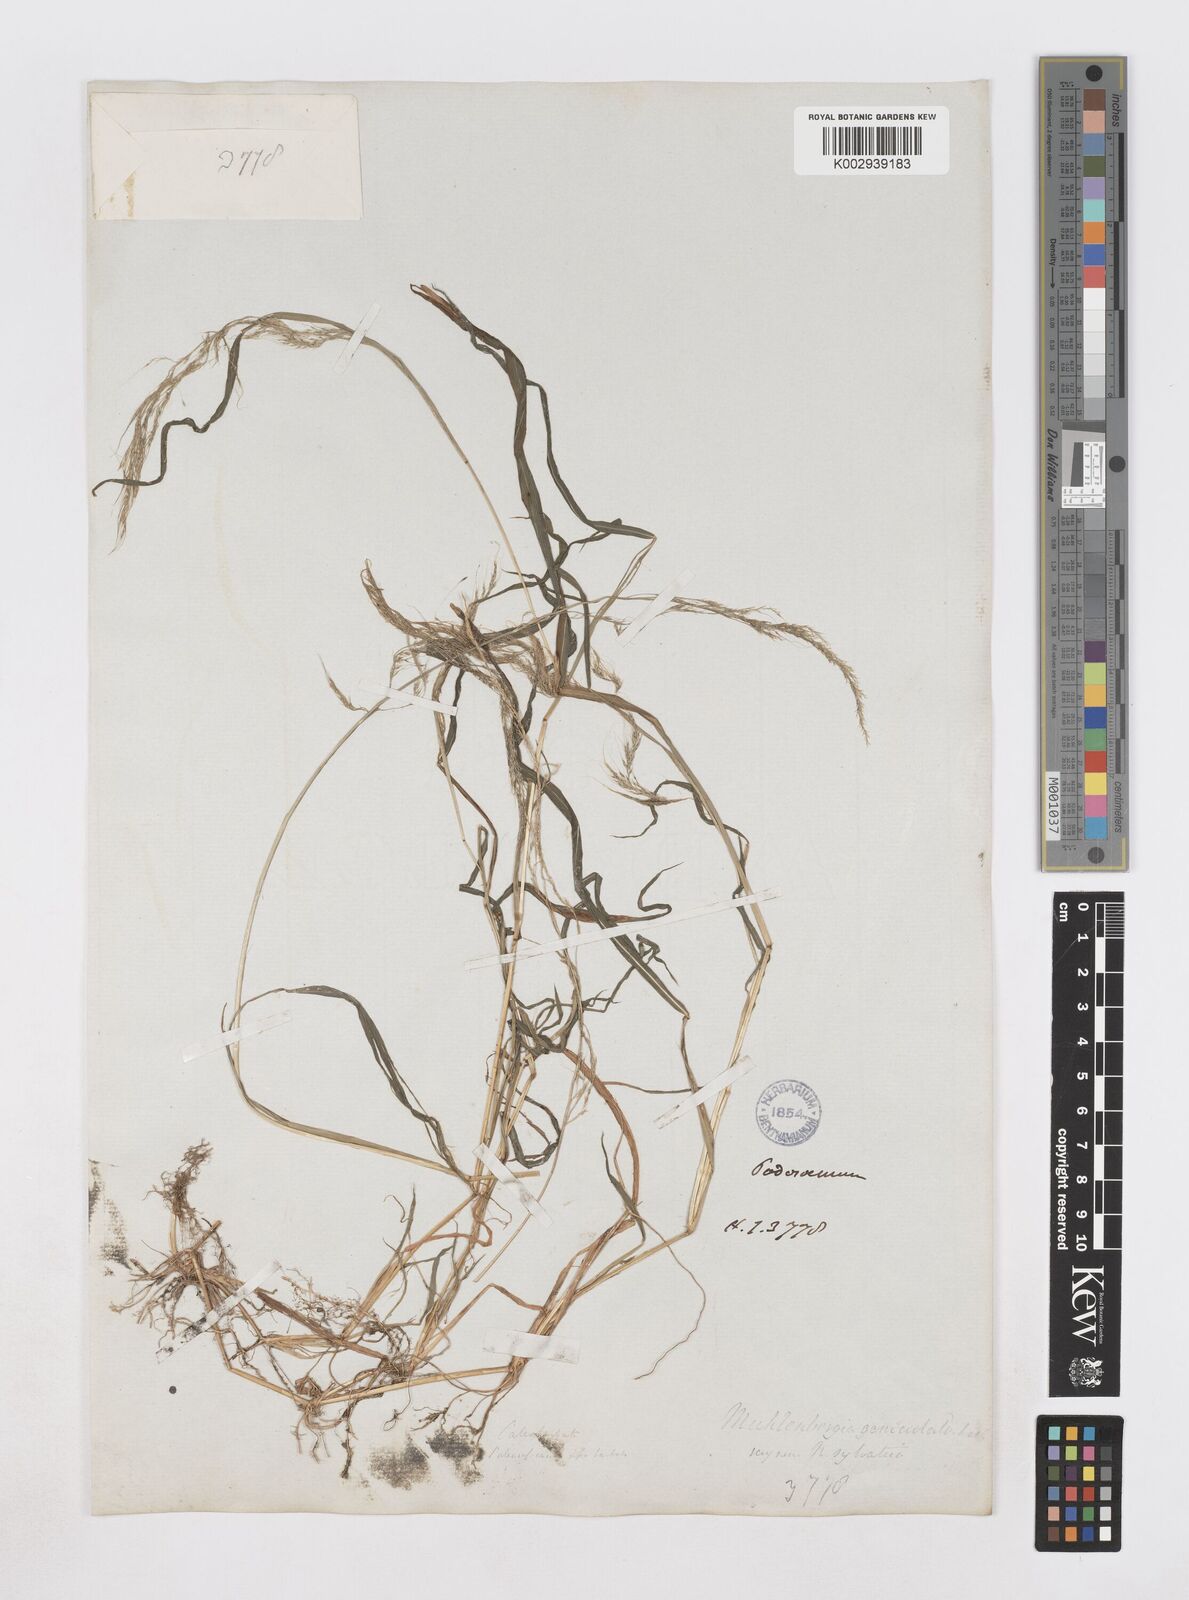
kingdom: Plantae
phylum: Tracheophyta
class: Liliopsida
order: Poales
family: Poaceae
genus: Muhlenbergia
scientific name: Muhlenbergia huegelii
